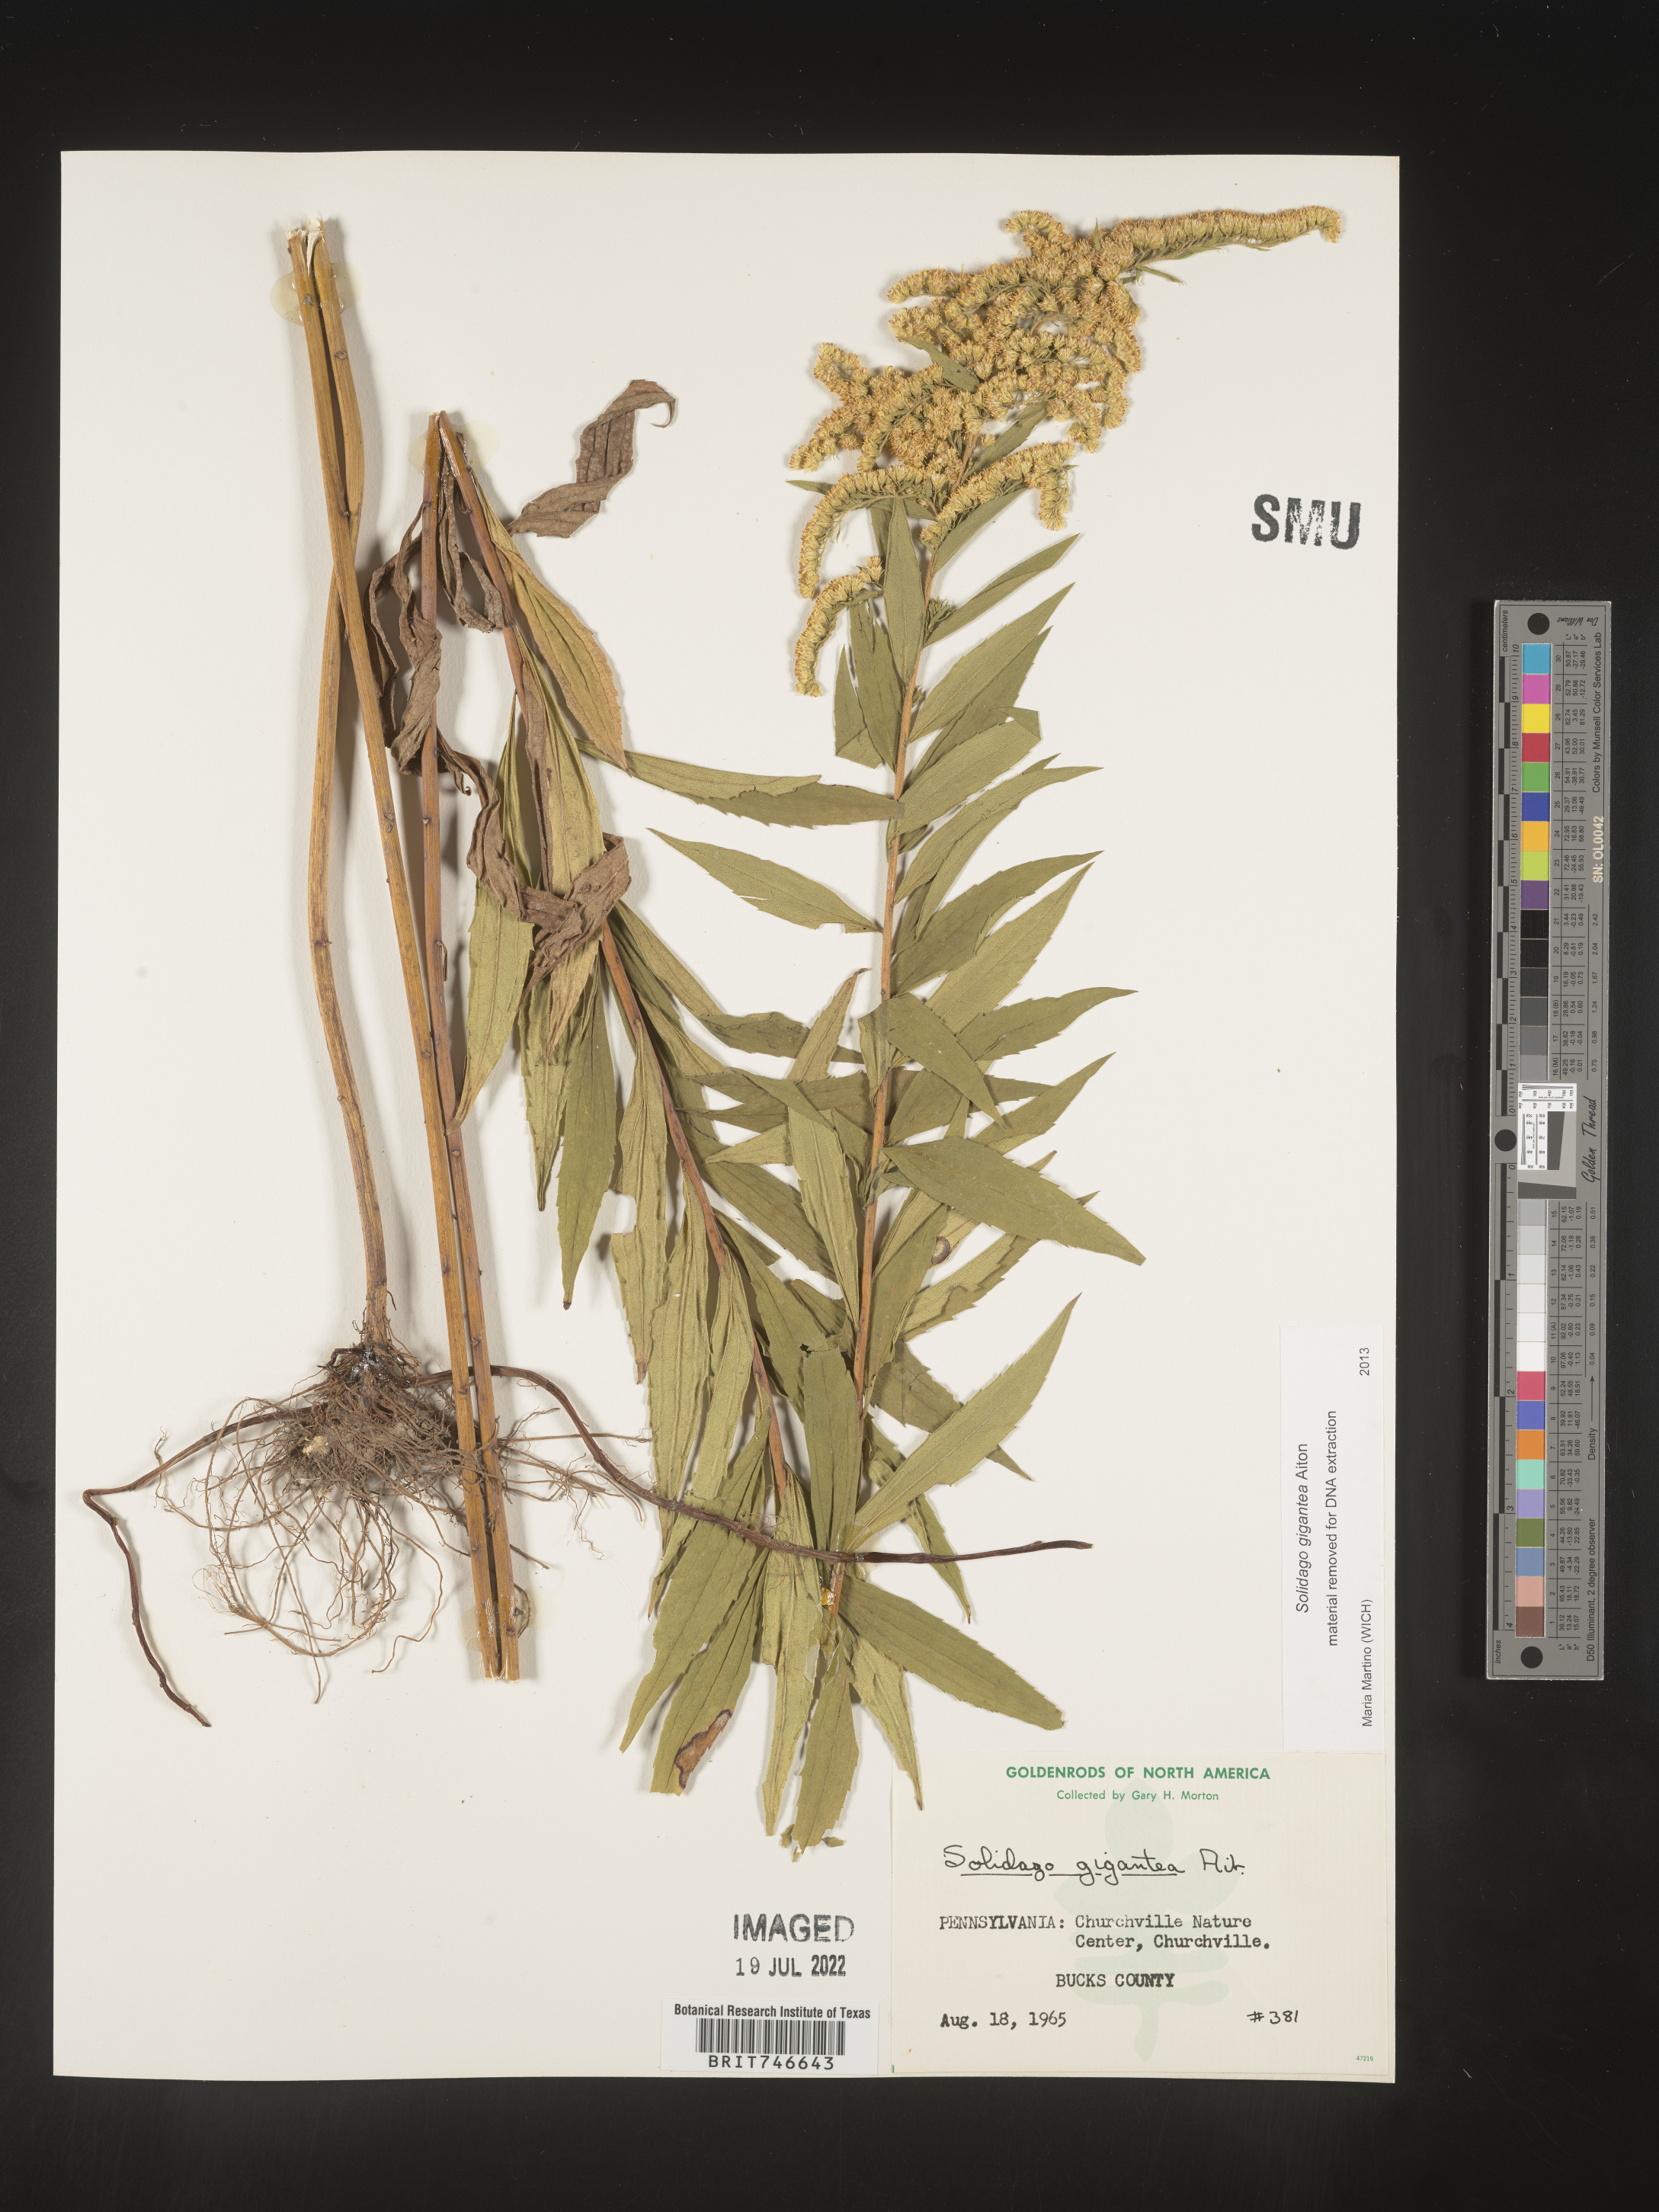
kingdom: Plantae
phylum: Tracheophyta
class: Magnoliopsida
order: Asterales
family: Asteraceae
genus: Solidago
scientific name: Solidago gigantea
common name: Giant goldenrod
